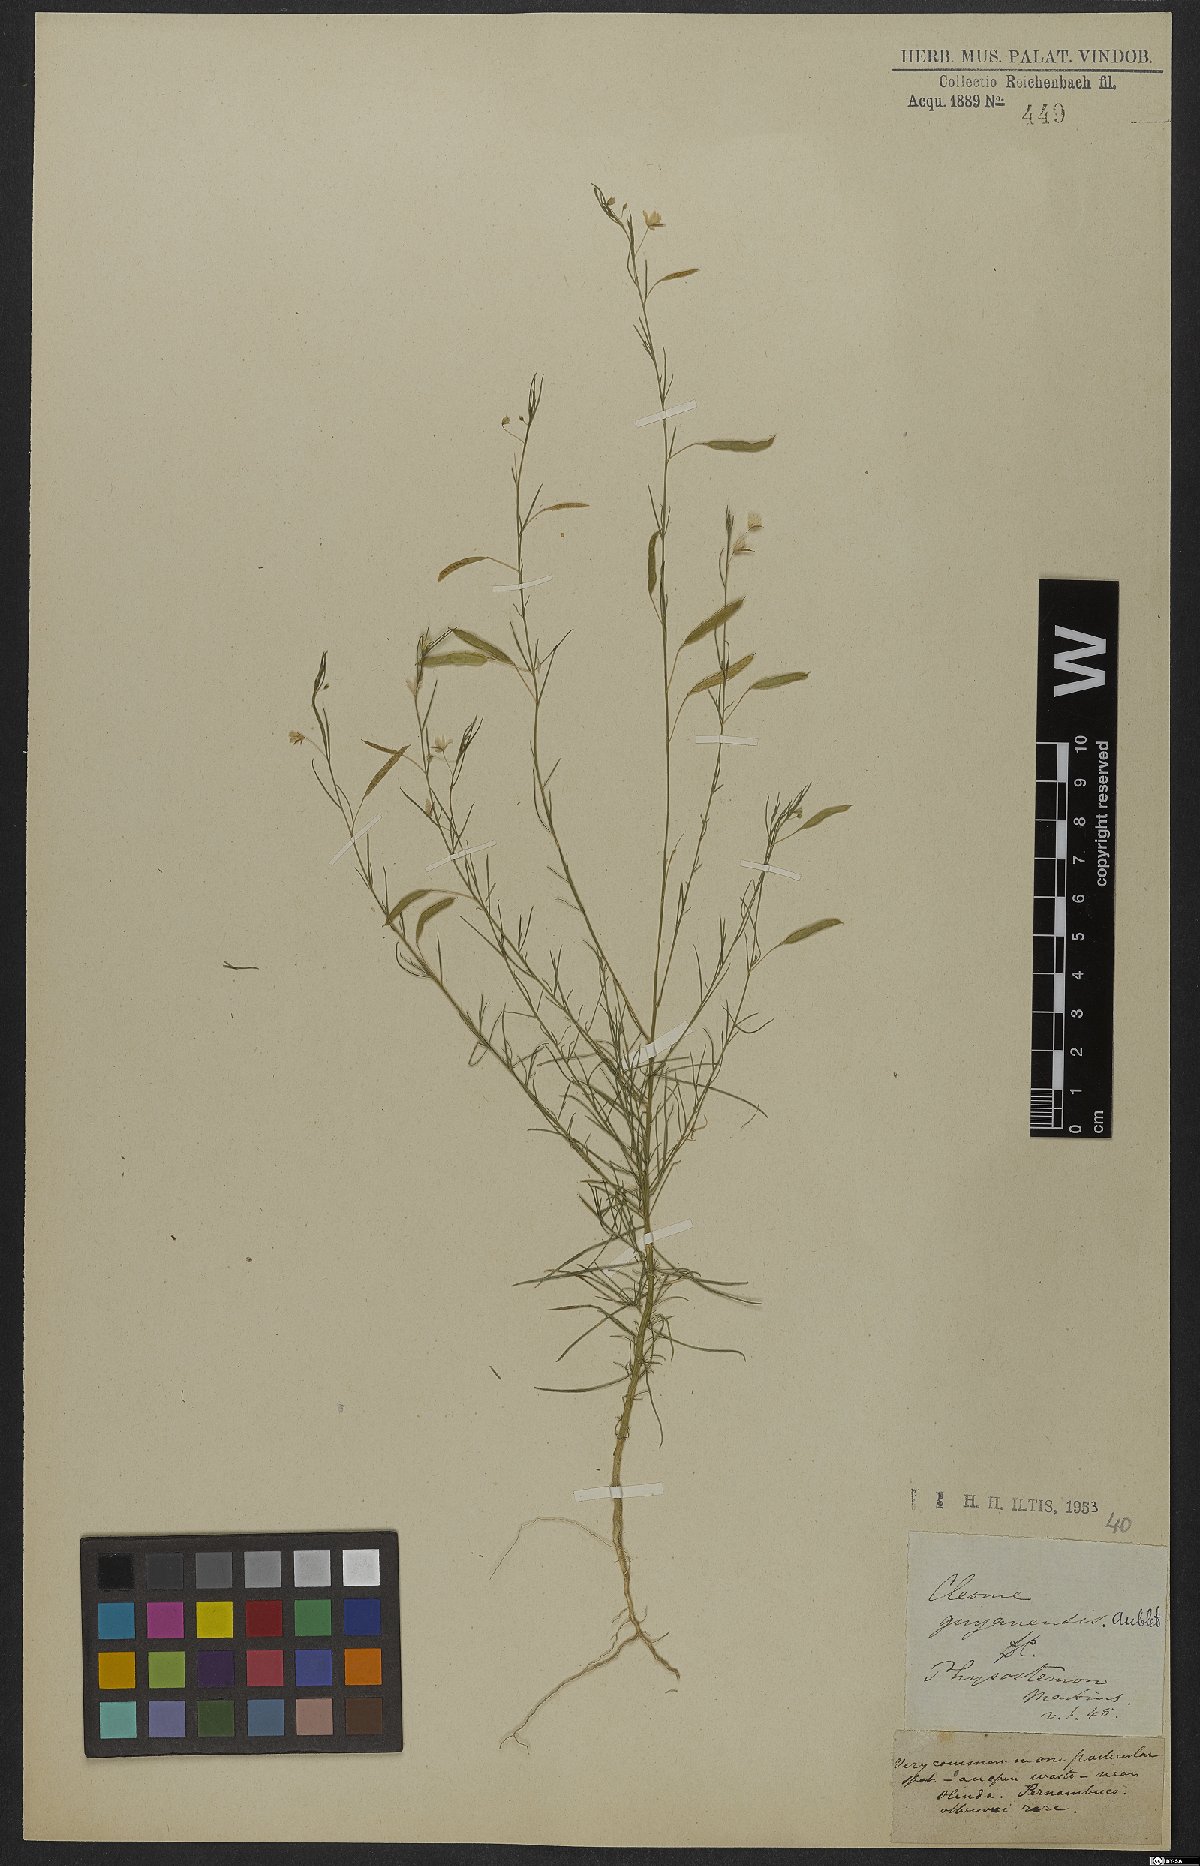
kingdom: Plantae
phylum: Tracheophyta
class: Magnoliopsida
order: Brassicales
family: Cleomaceae
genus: Physostemon
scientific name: Physostemon guianensis
